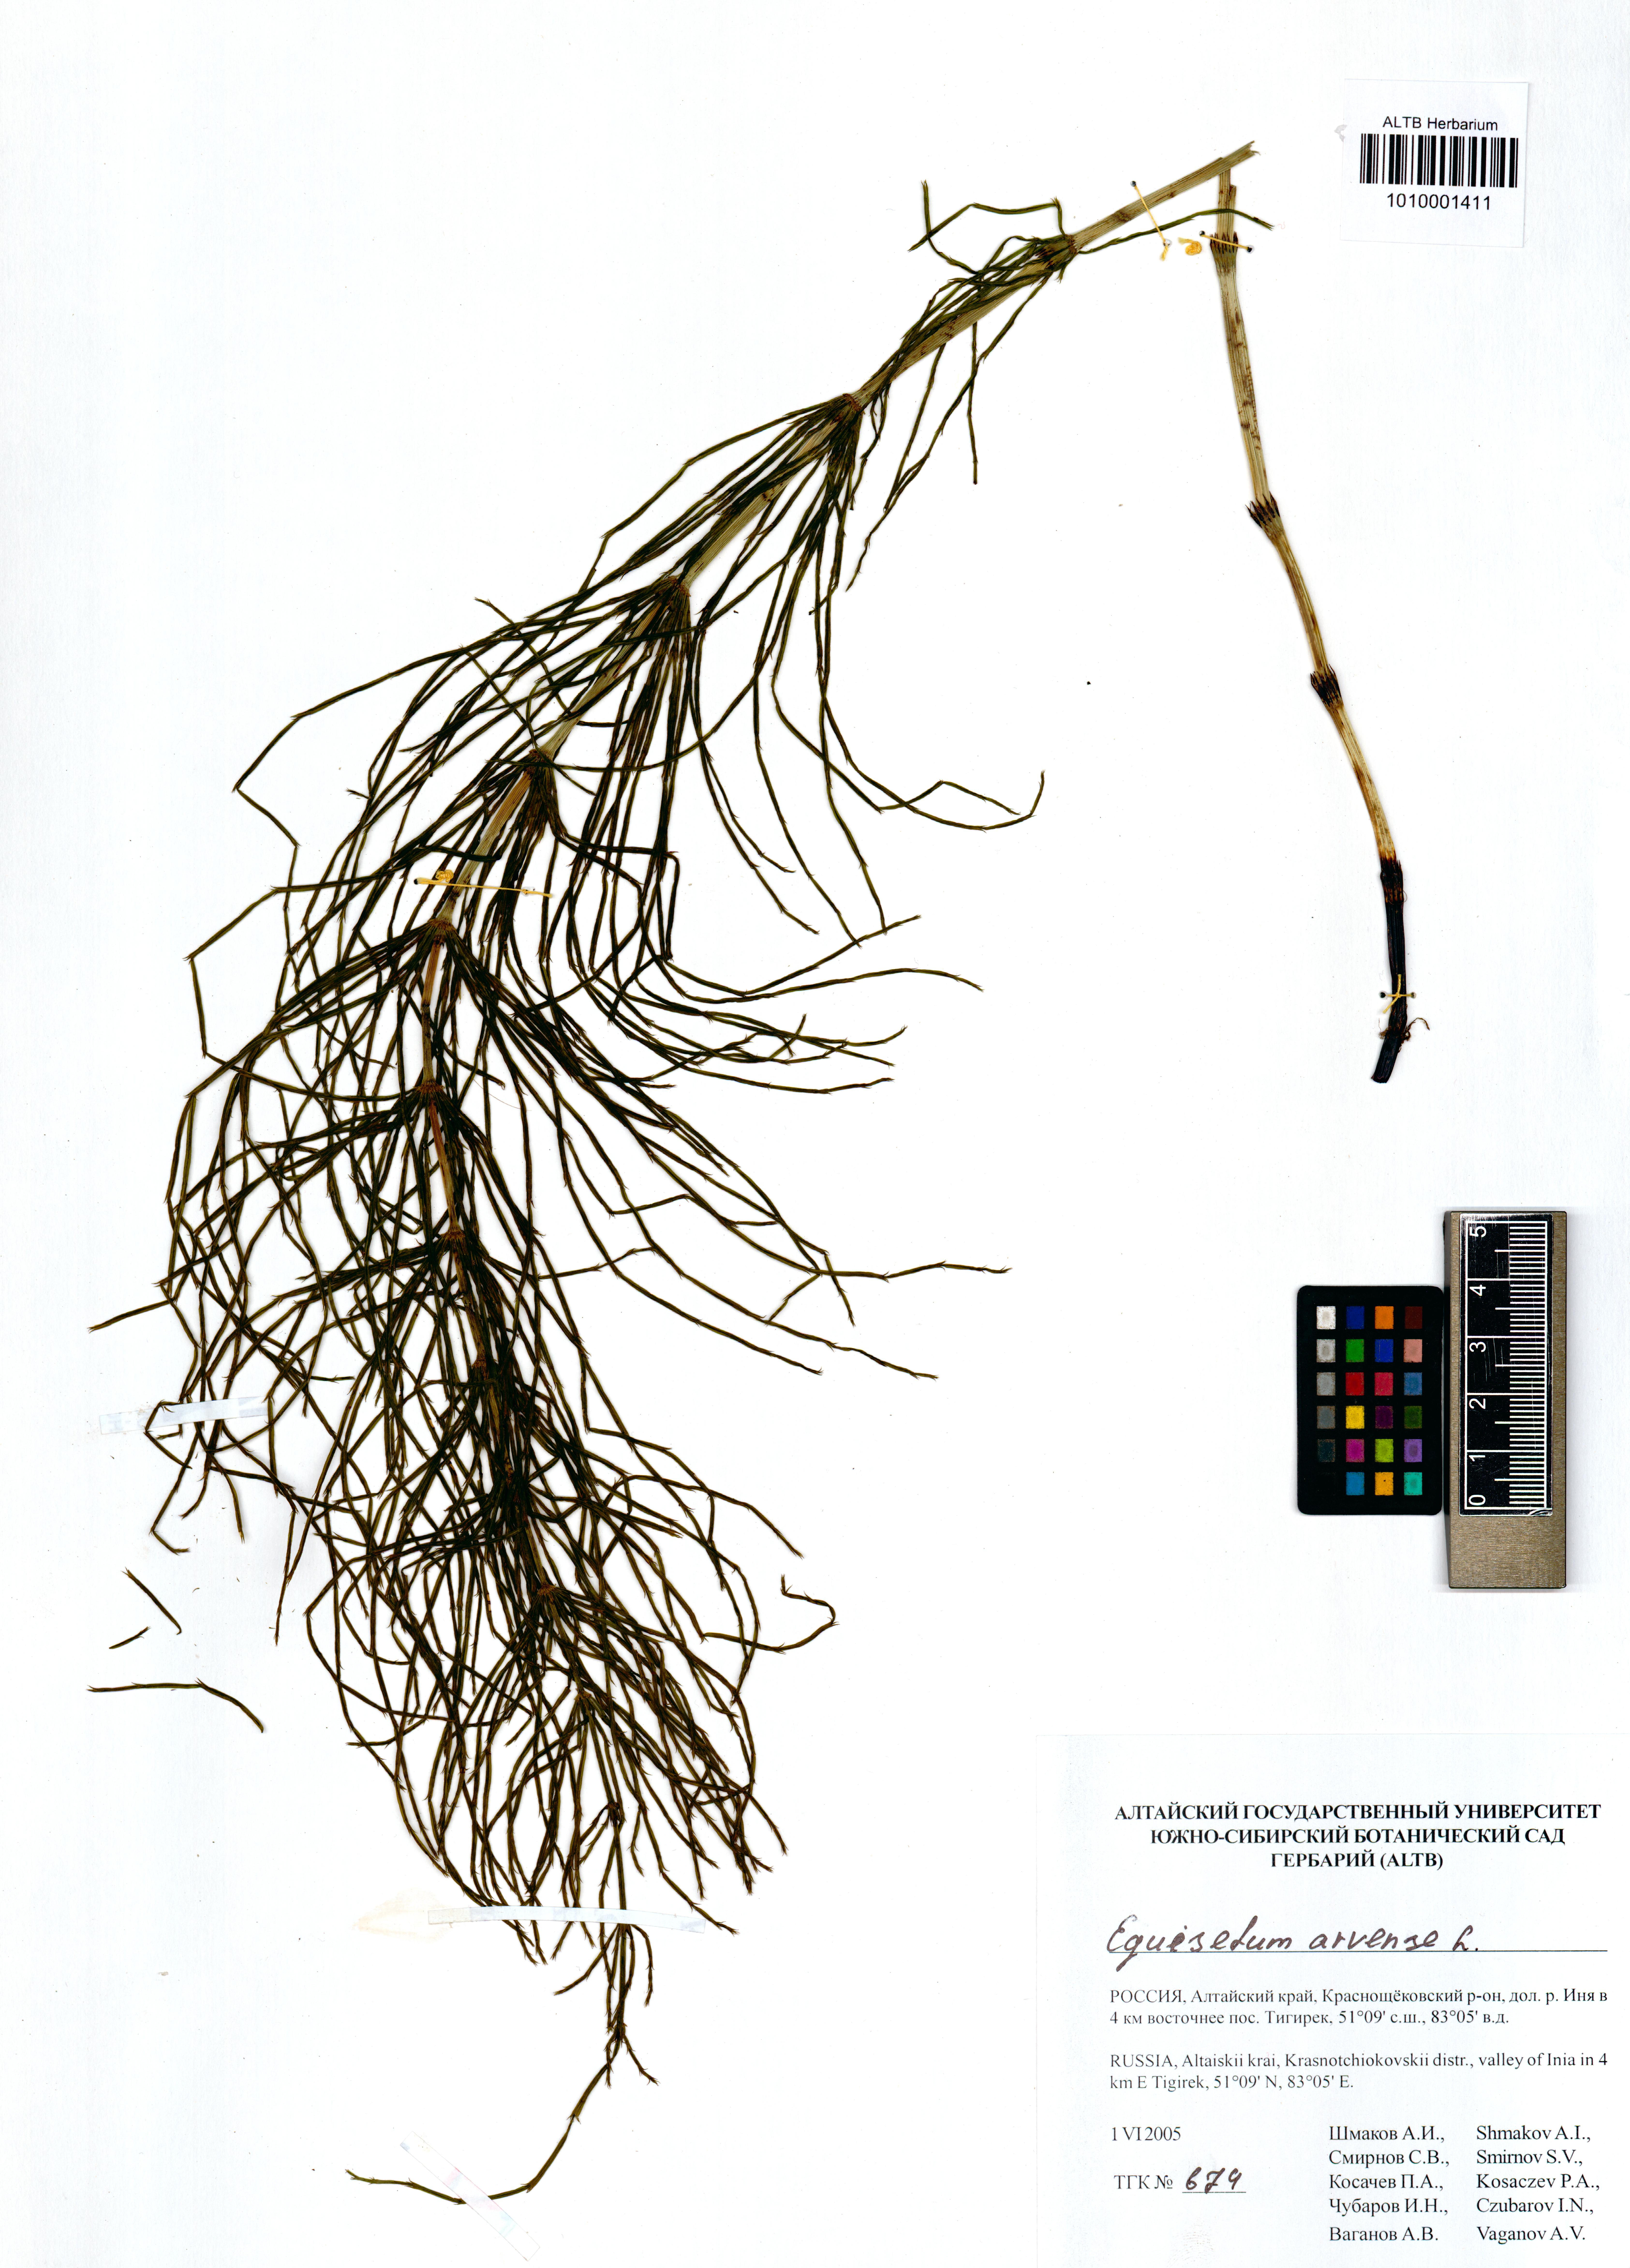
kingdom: Plantae
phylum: Tracheophyta
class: Polypodiopsida
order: Equisetales
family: Equisetaceae
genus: Equisetum
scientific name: Equisetum arvense
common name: Field horsetail
